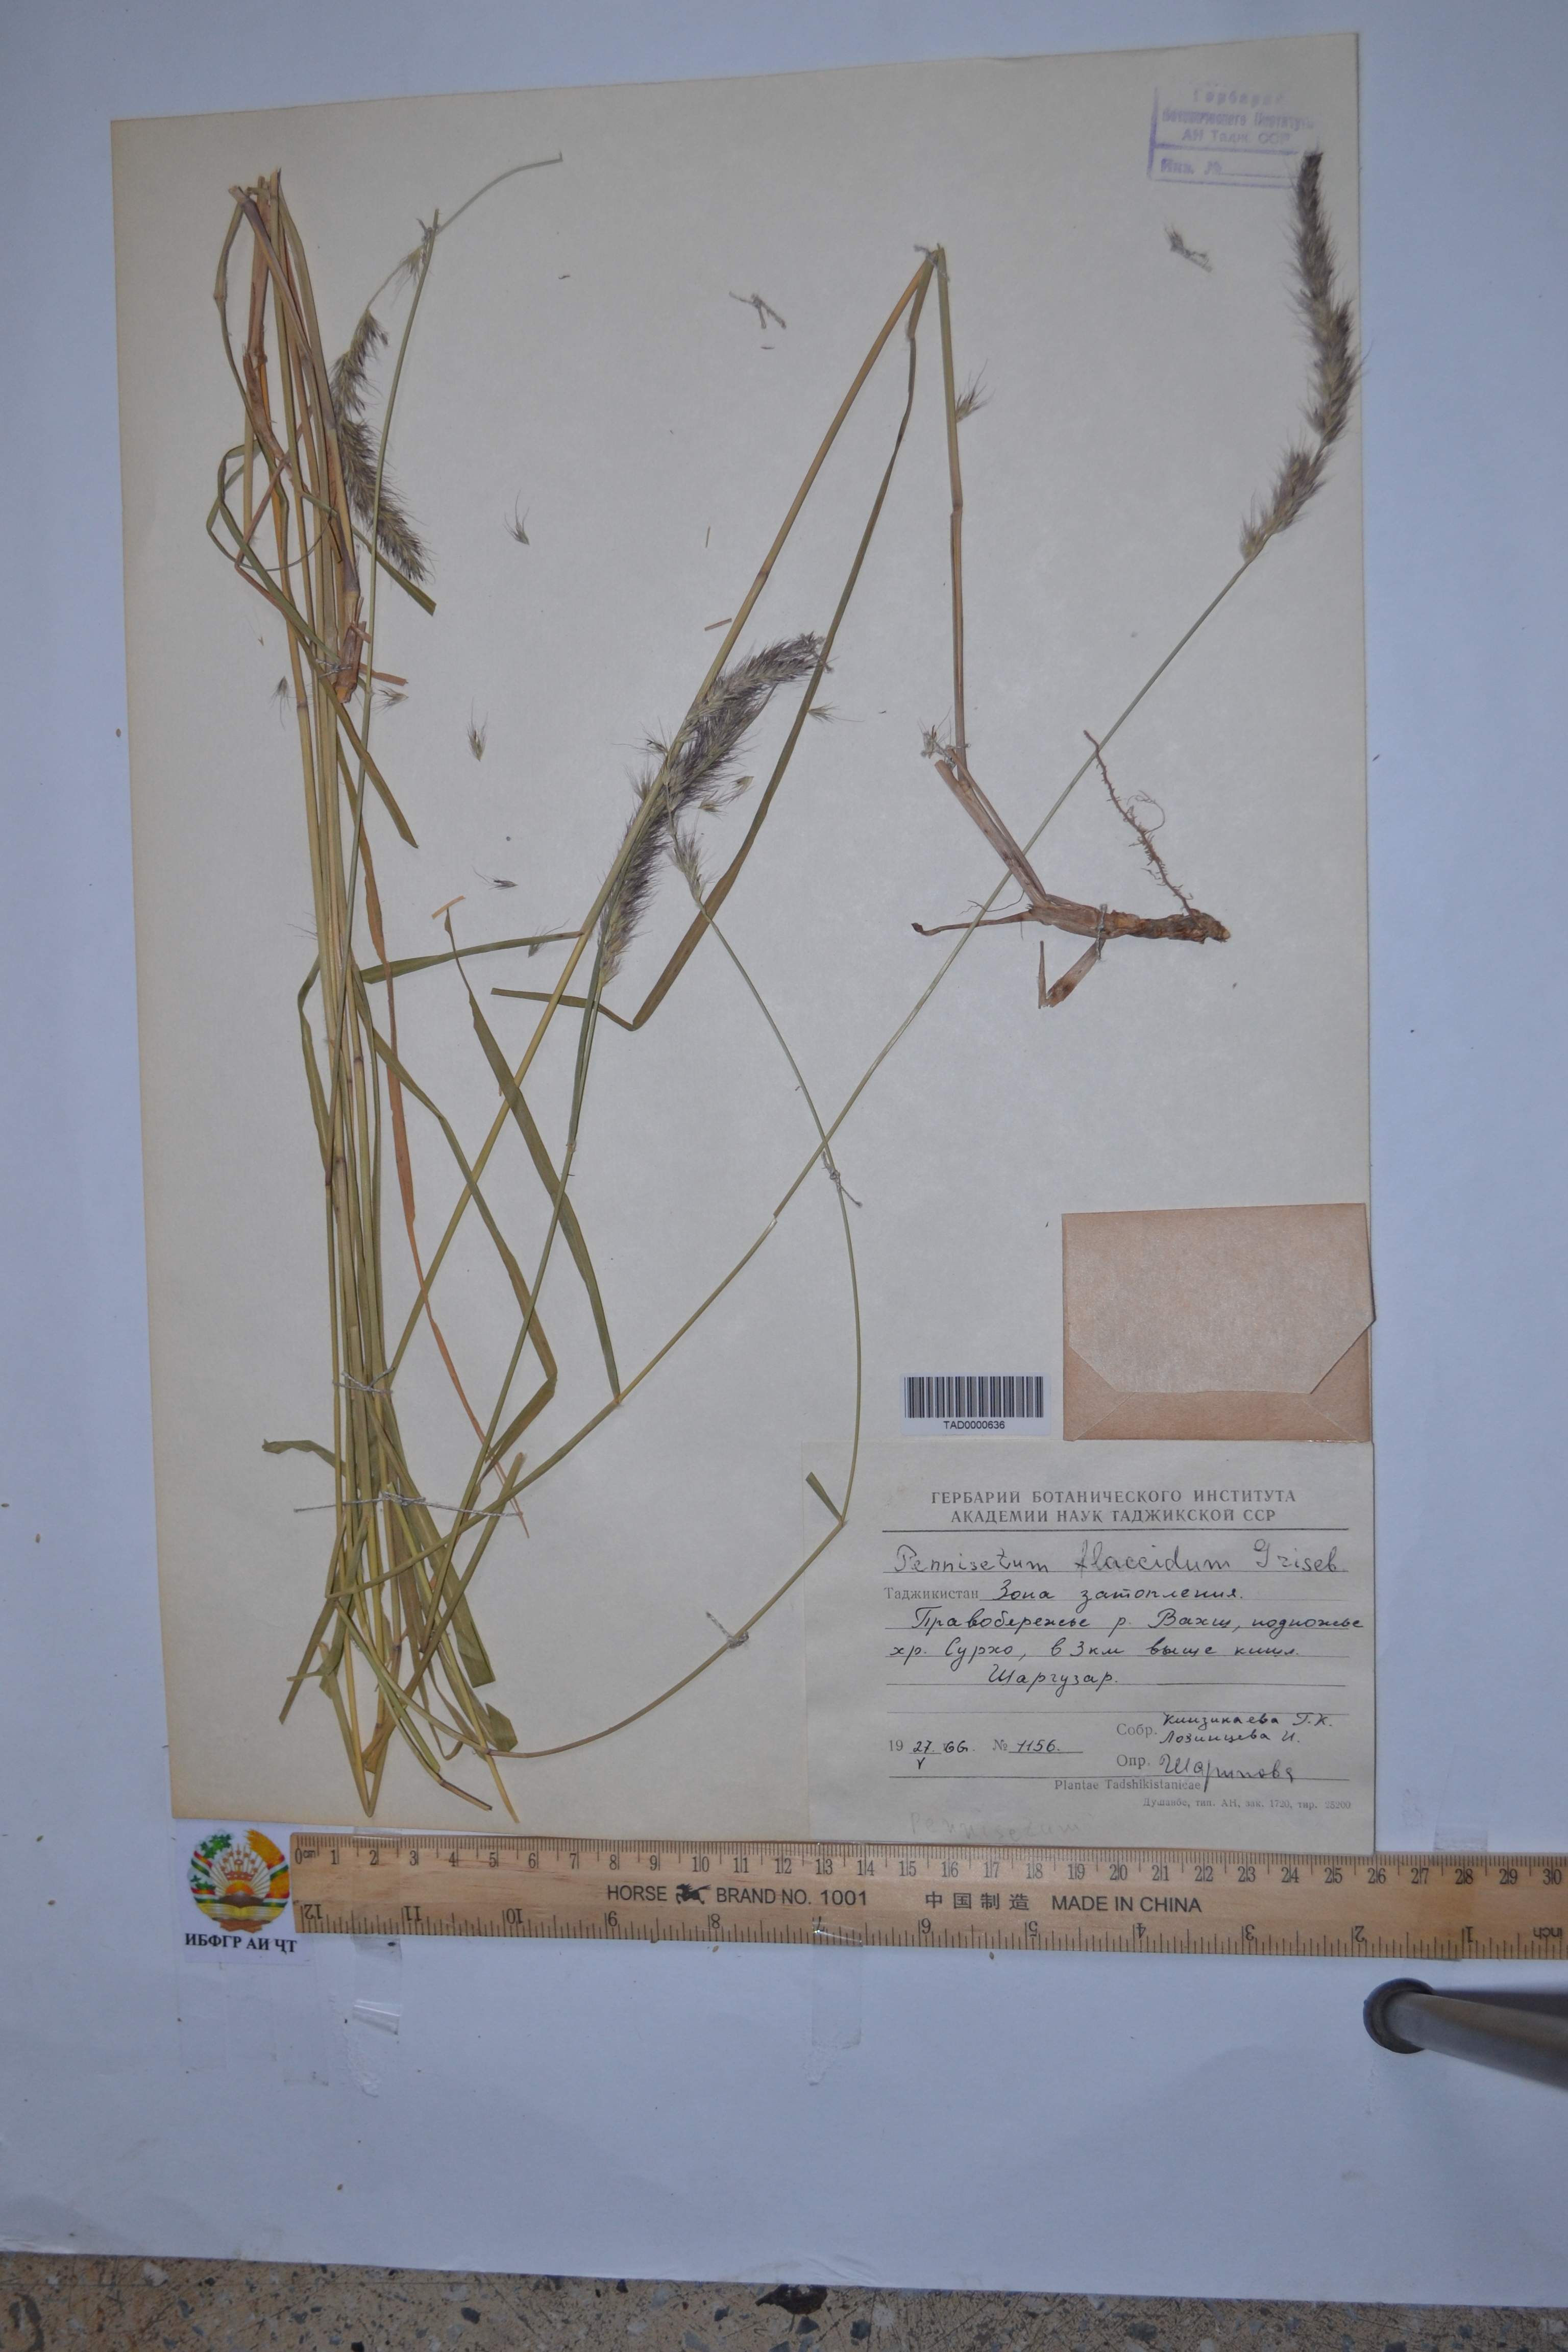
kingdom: Plantae
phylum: Tracheophyta
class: Liliopsida
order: Poales
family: Poaceae
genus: Cenchrus
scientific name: Cenchrus flaccidus
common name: Flaccid grass
